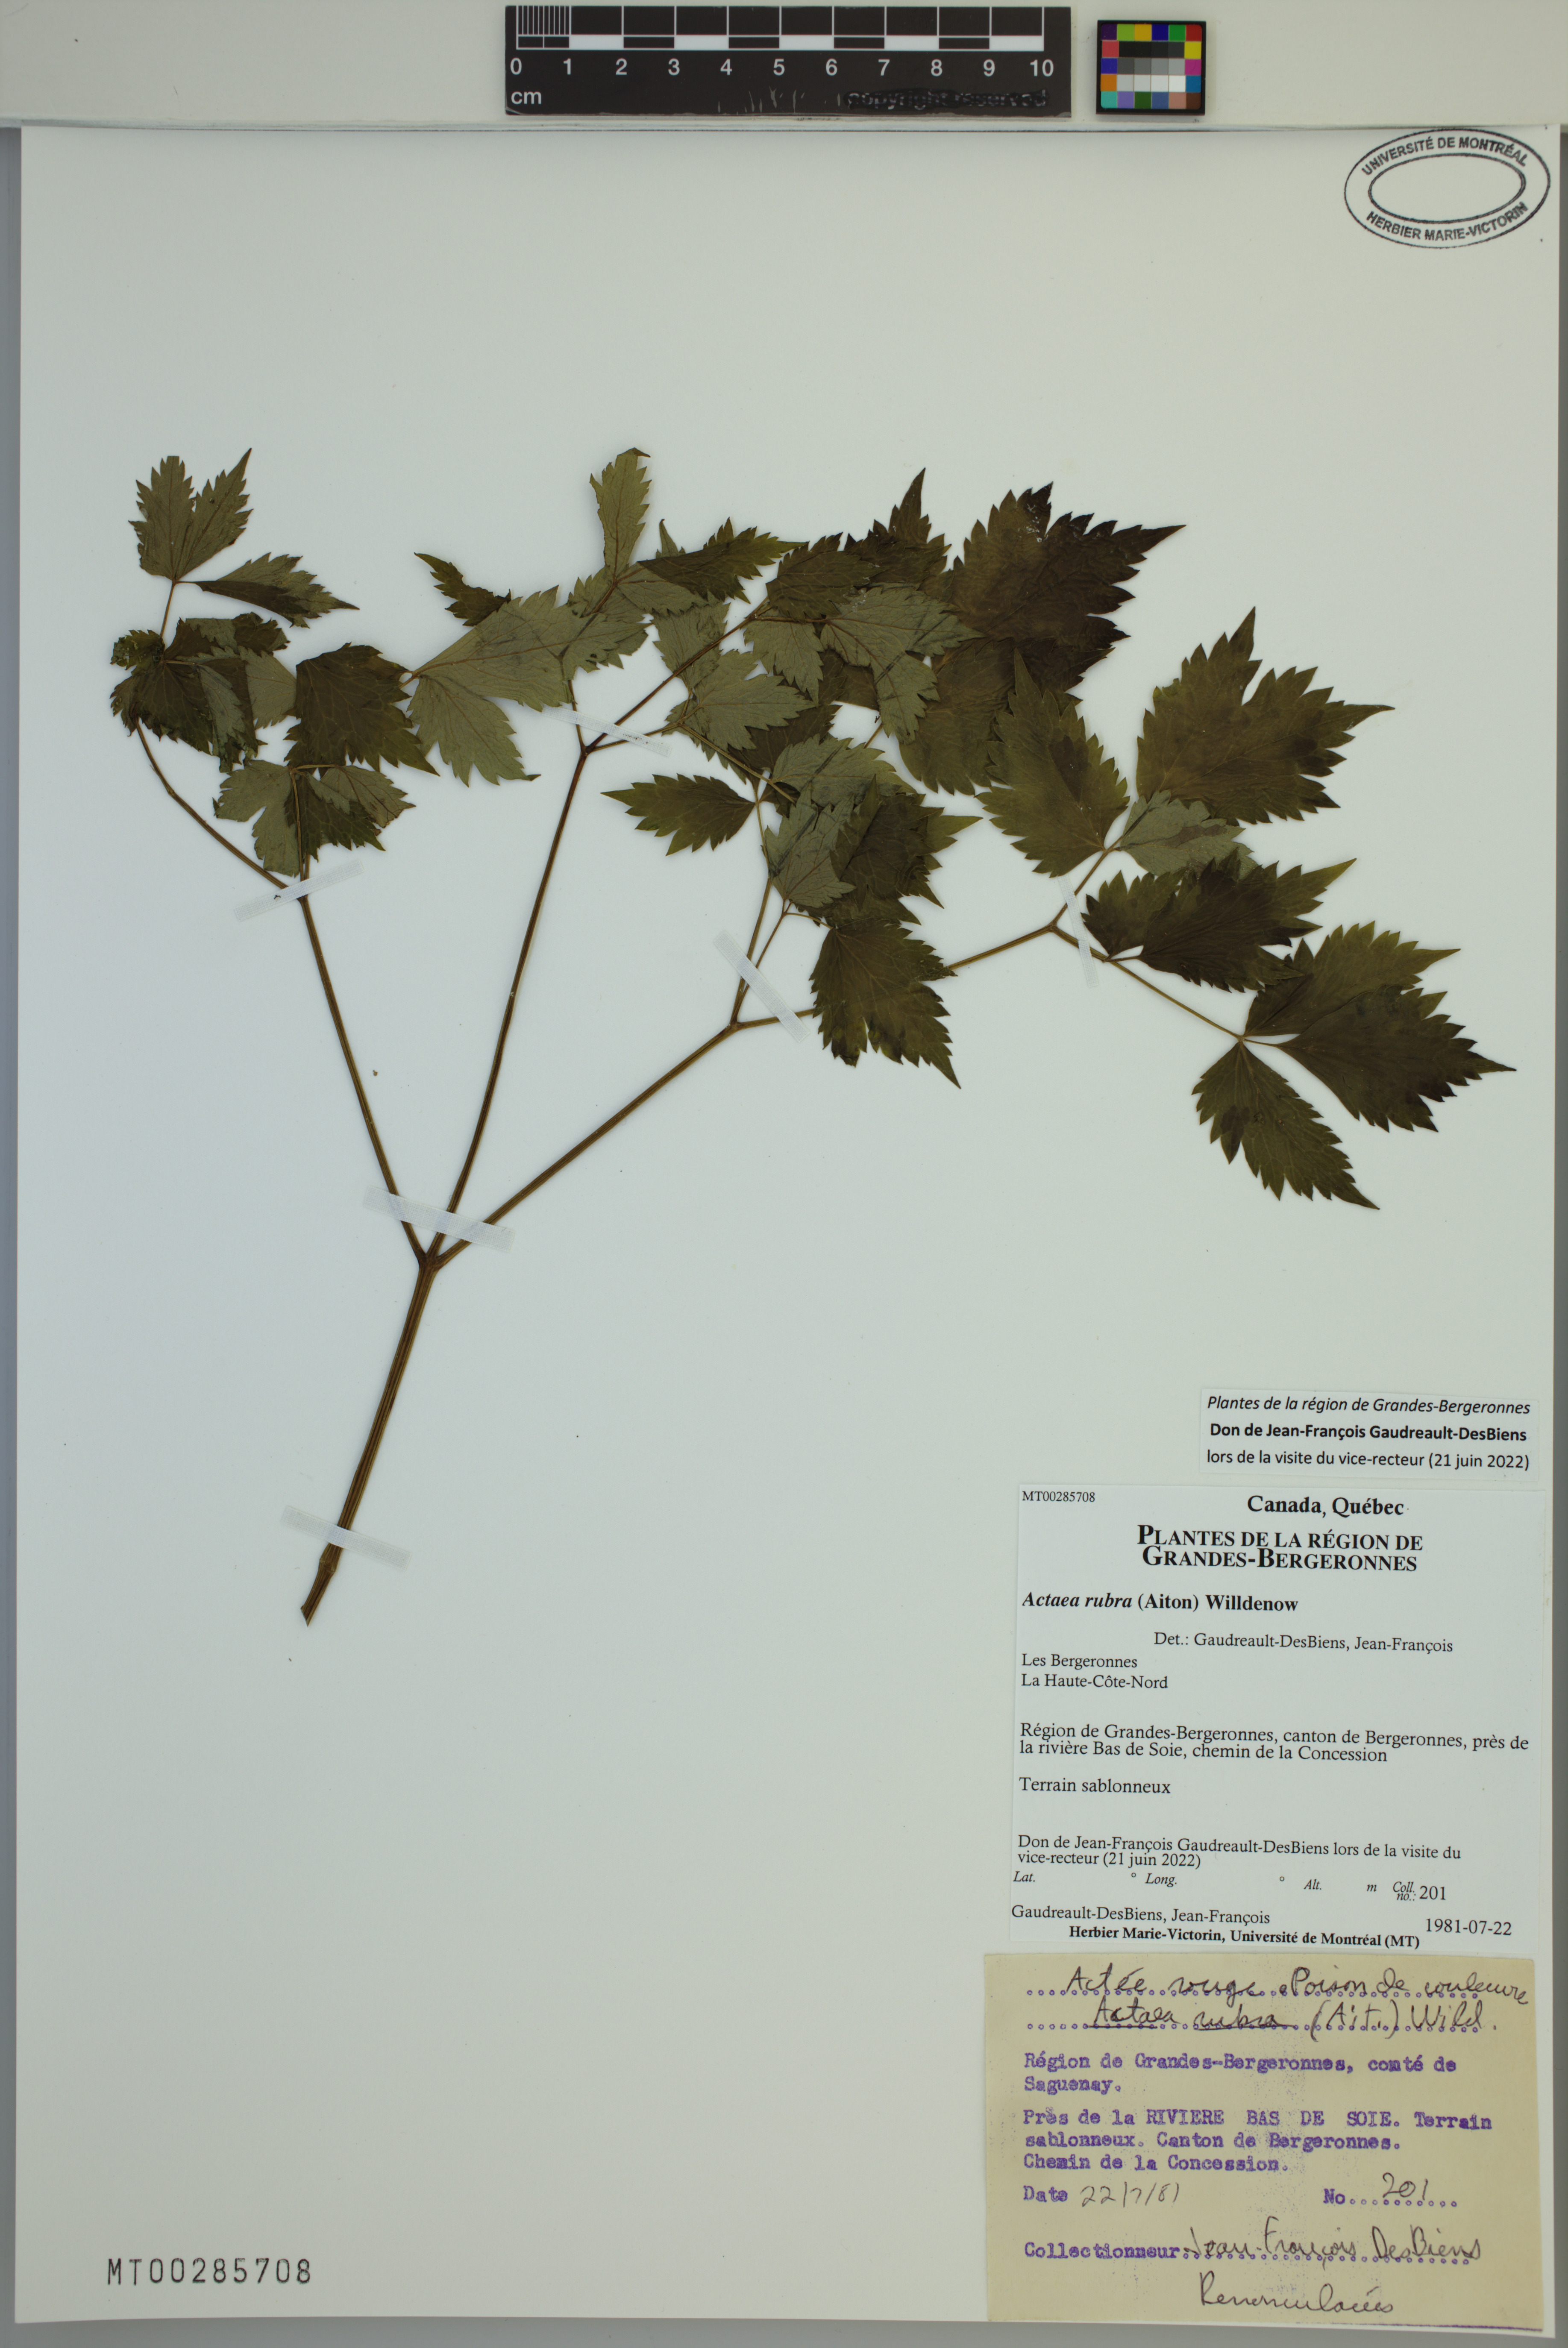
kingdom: Plantae
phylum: Tracheophyta
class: Magnoliopsida
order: Ranunculales
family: Ranunculaceae
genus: Actaea
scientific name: Actaea rubra
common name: Red baneberry
